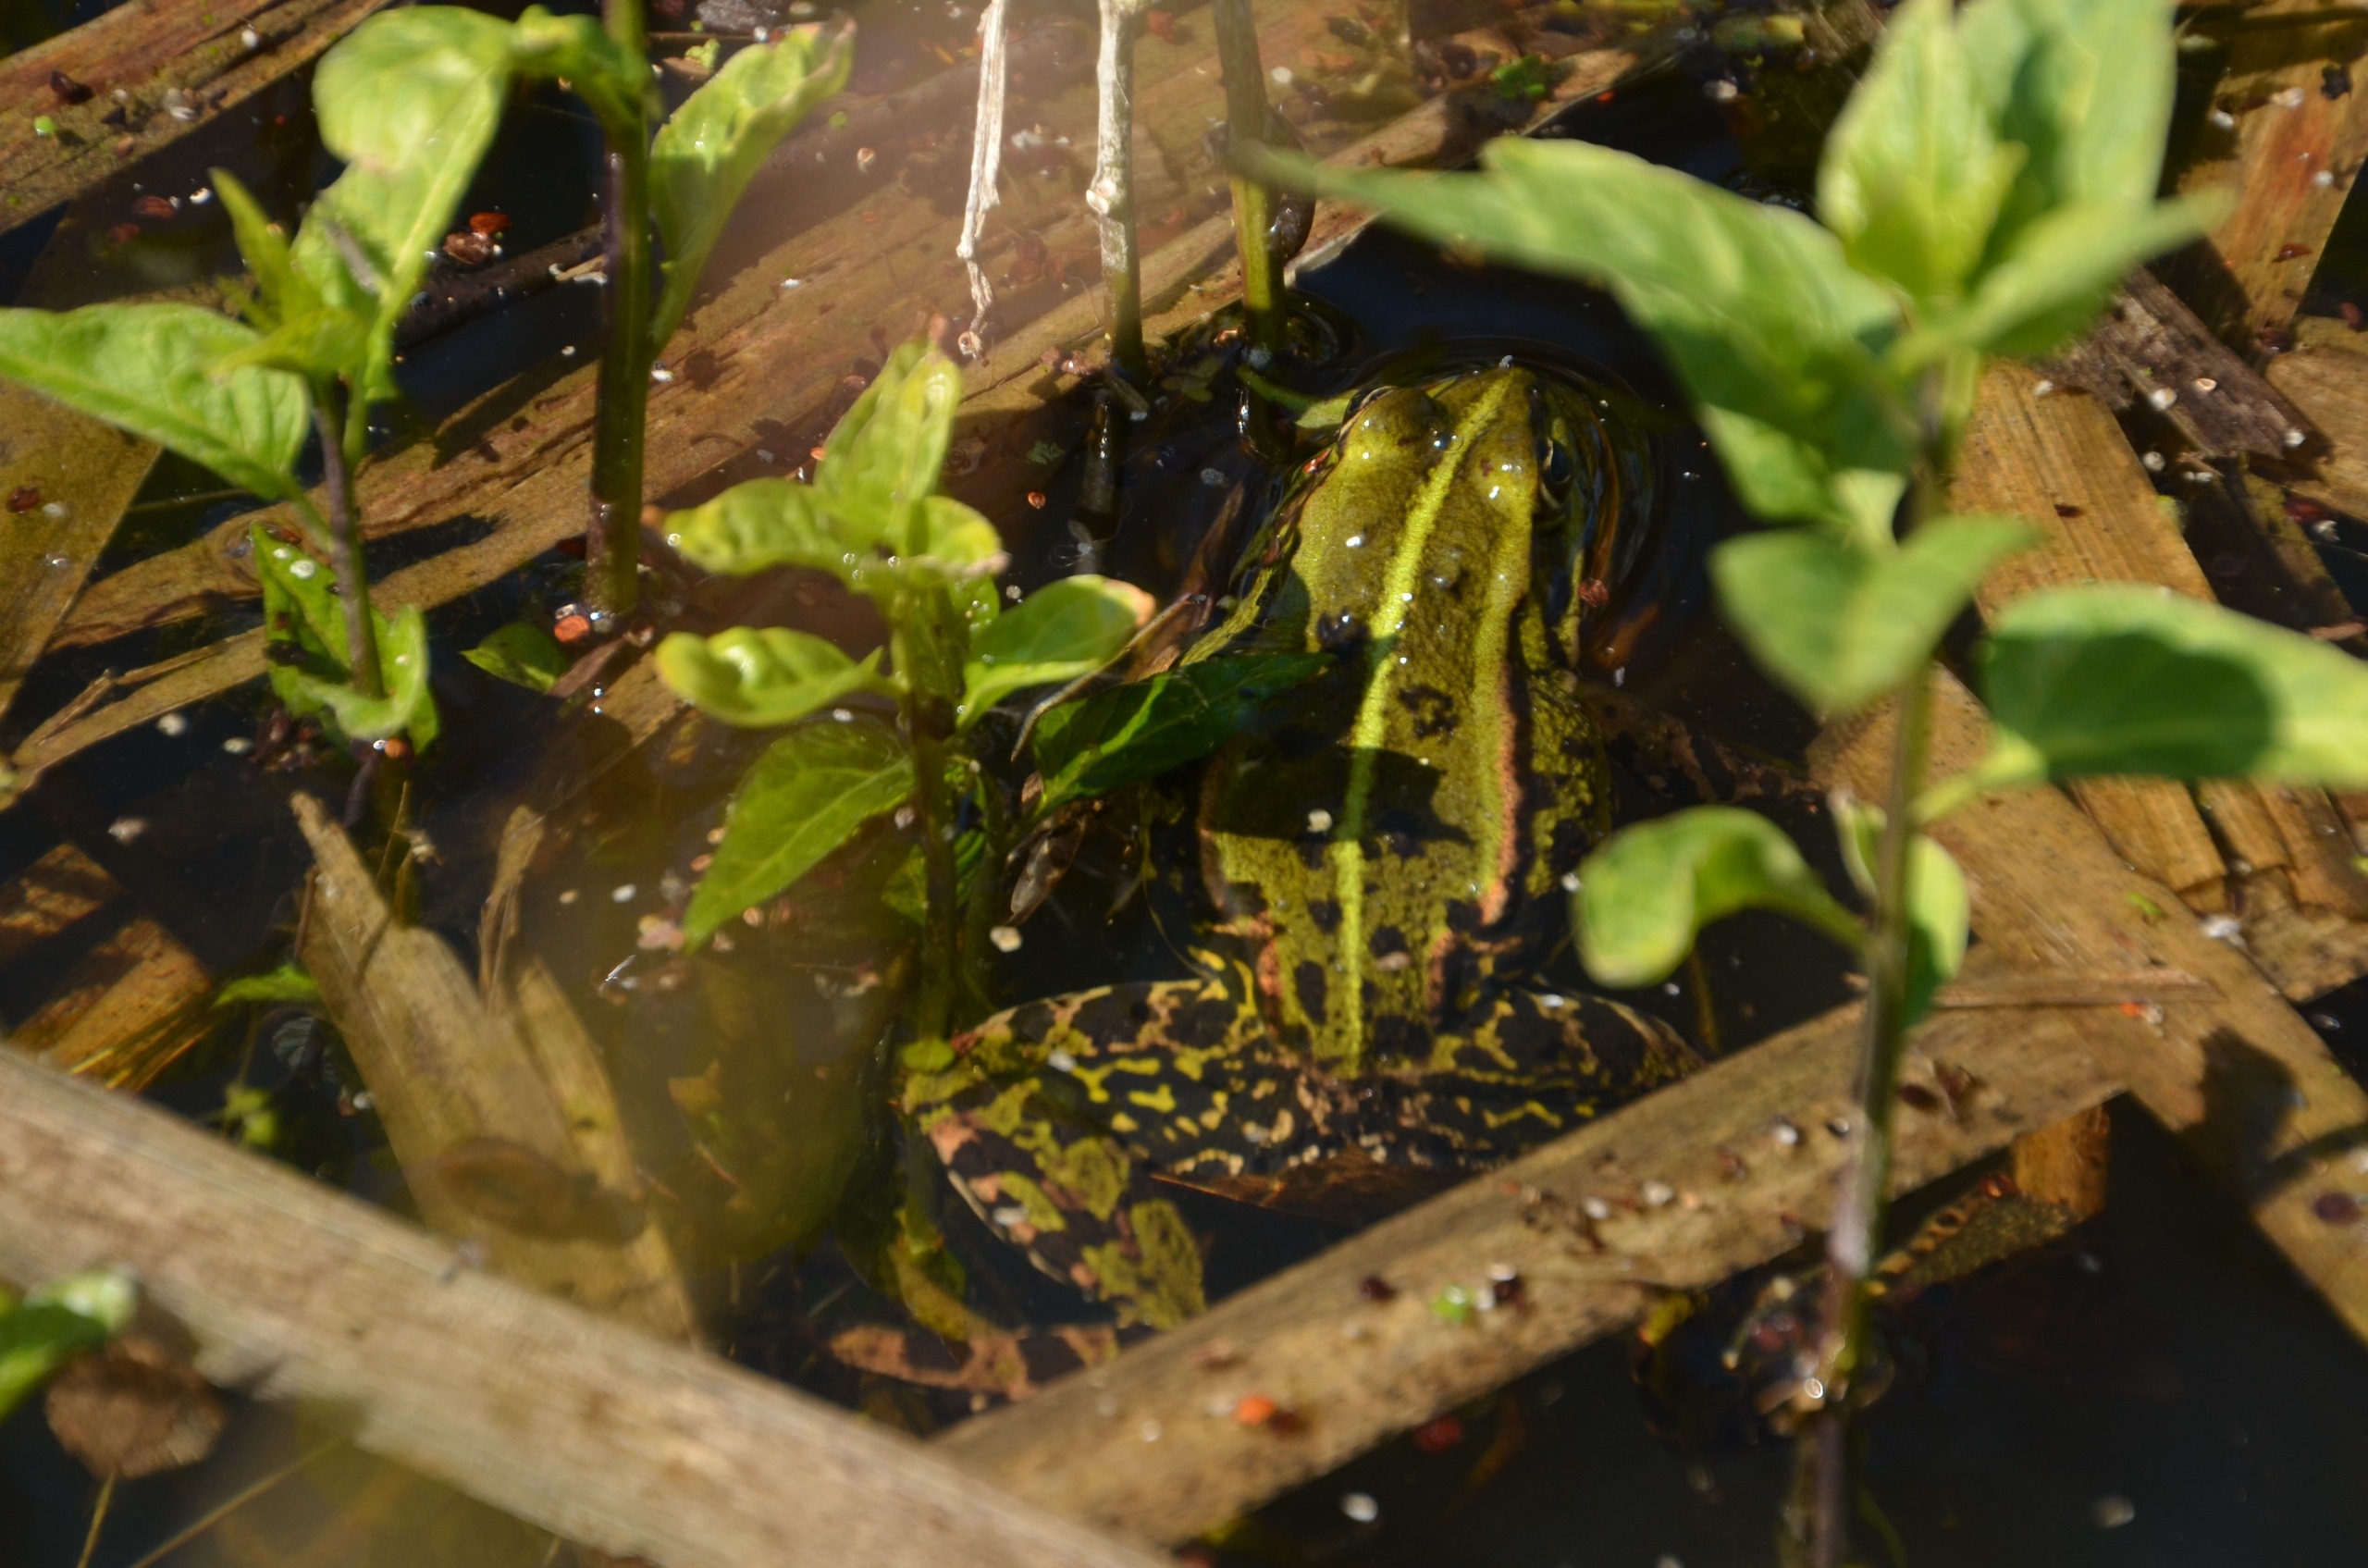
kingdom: Animalia
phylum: Chordata
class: Amphibia
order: Anura
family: Ranidae
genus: Pelophylax
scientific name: Pelophylax lessonae
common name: Grøn frø
